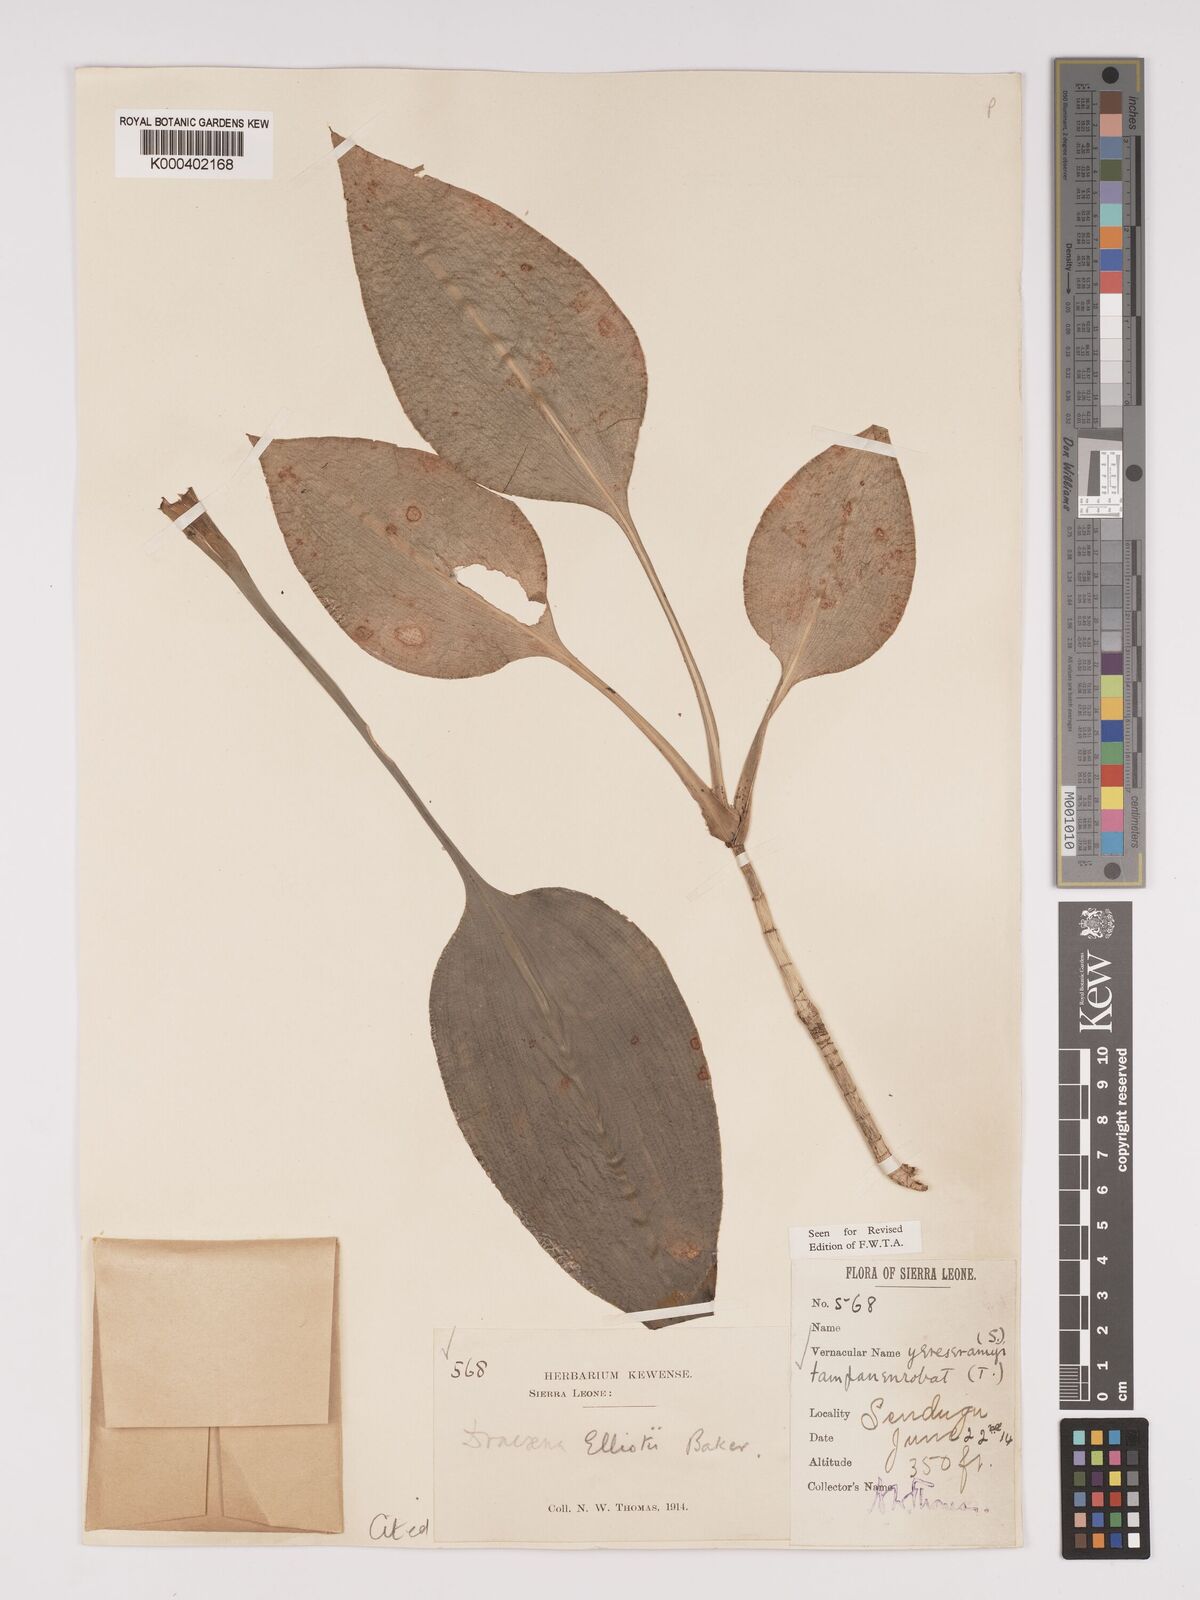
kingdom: Plantae
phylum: Tracheophyta
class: Liliopsida
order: Asparagales
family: Asparagaceae
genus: Dracaena
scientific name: Dracaena cristula
